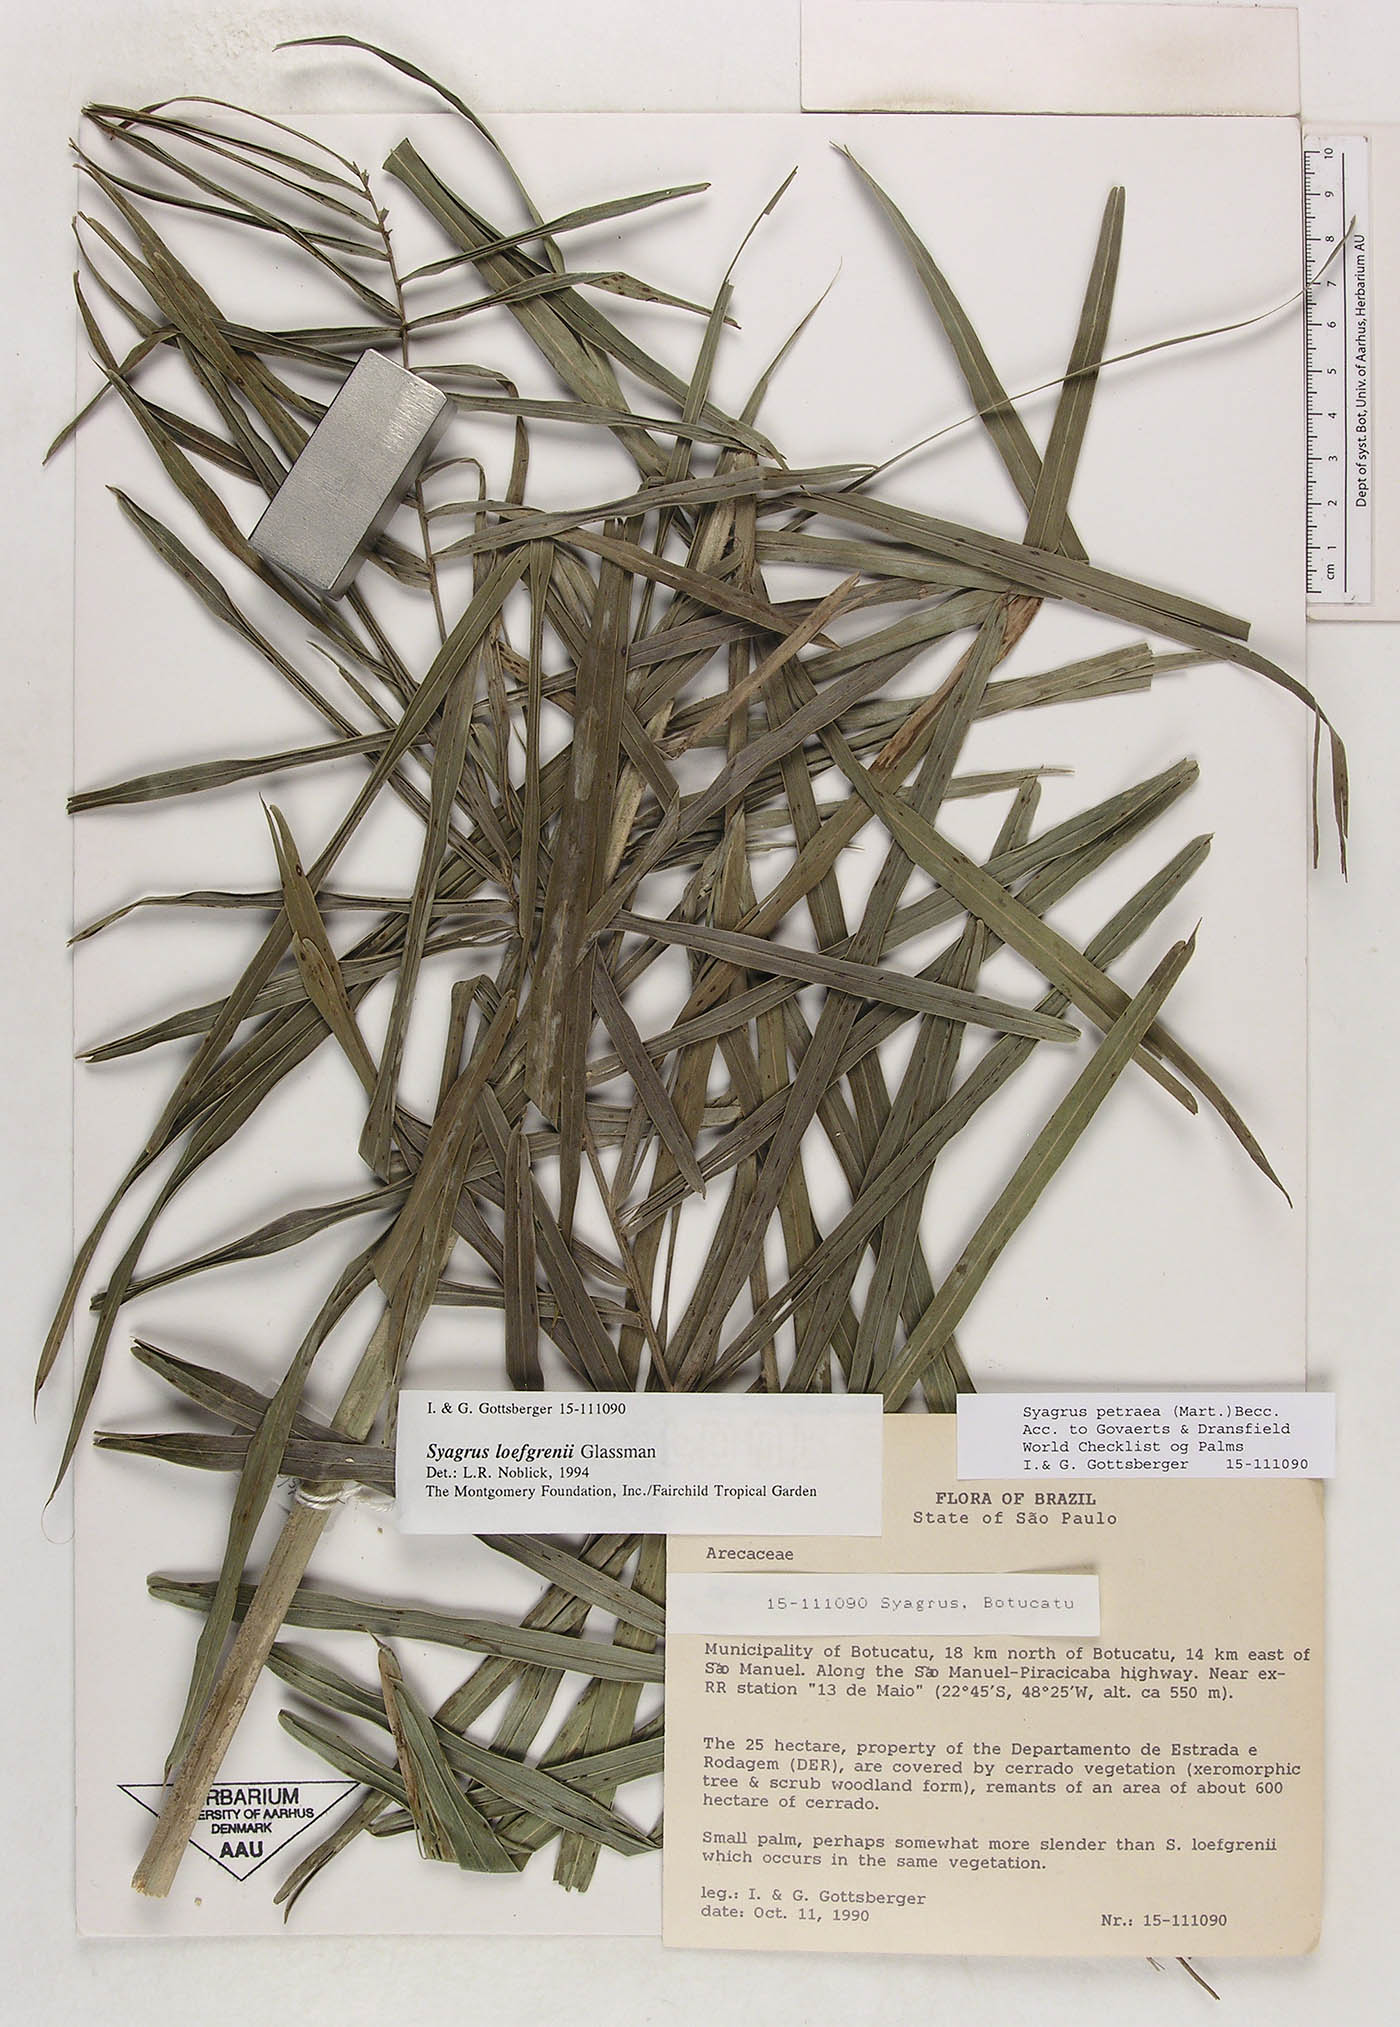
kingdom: Plantae
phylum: Tracheophyta
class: Liliopsida
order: Arecales
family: Arecaceae
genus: Syagrus
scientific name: Syagrus petraea
